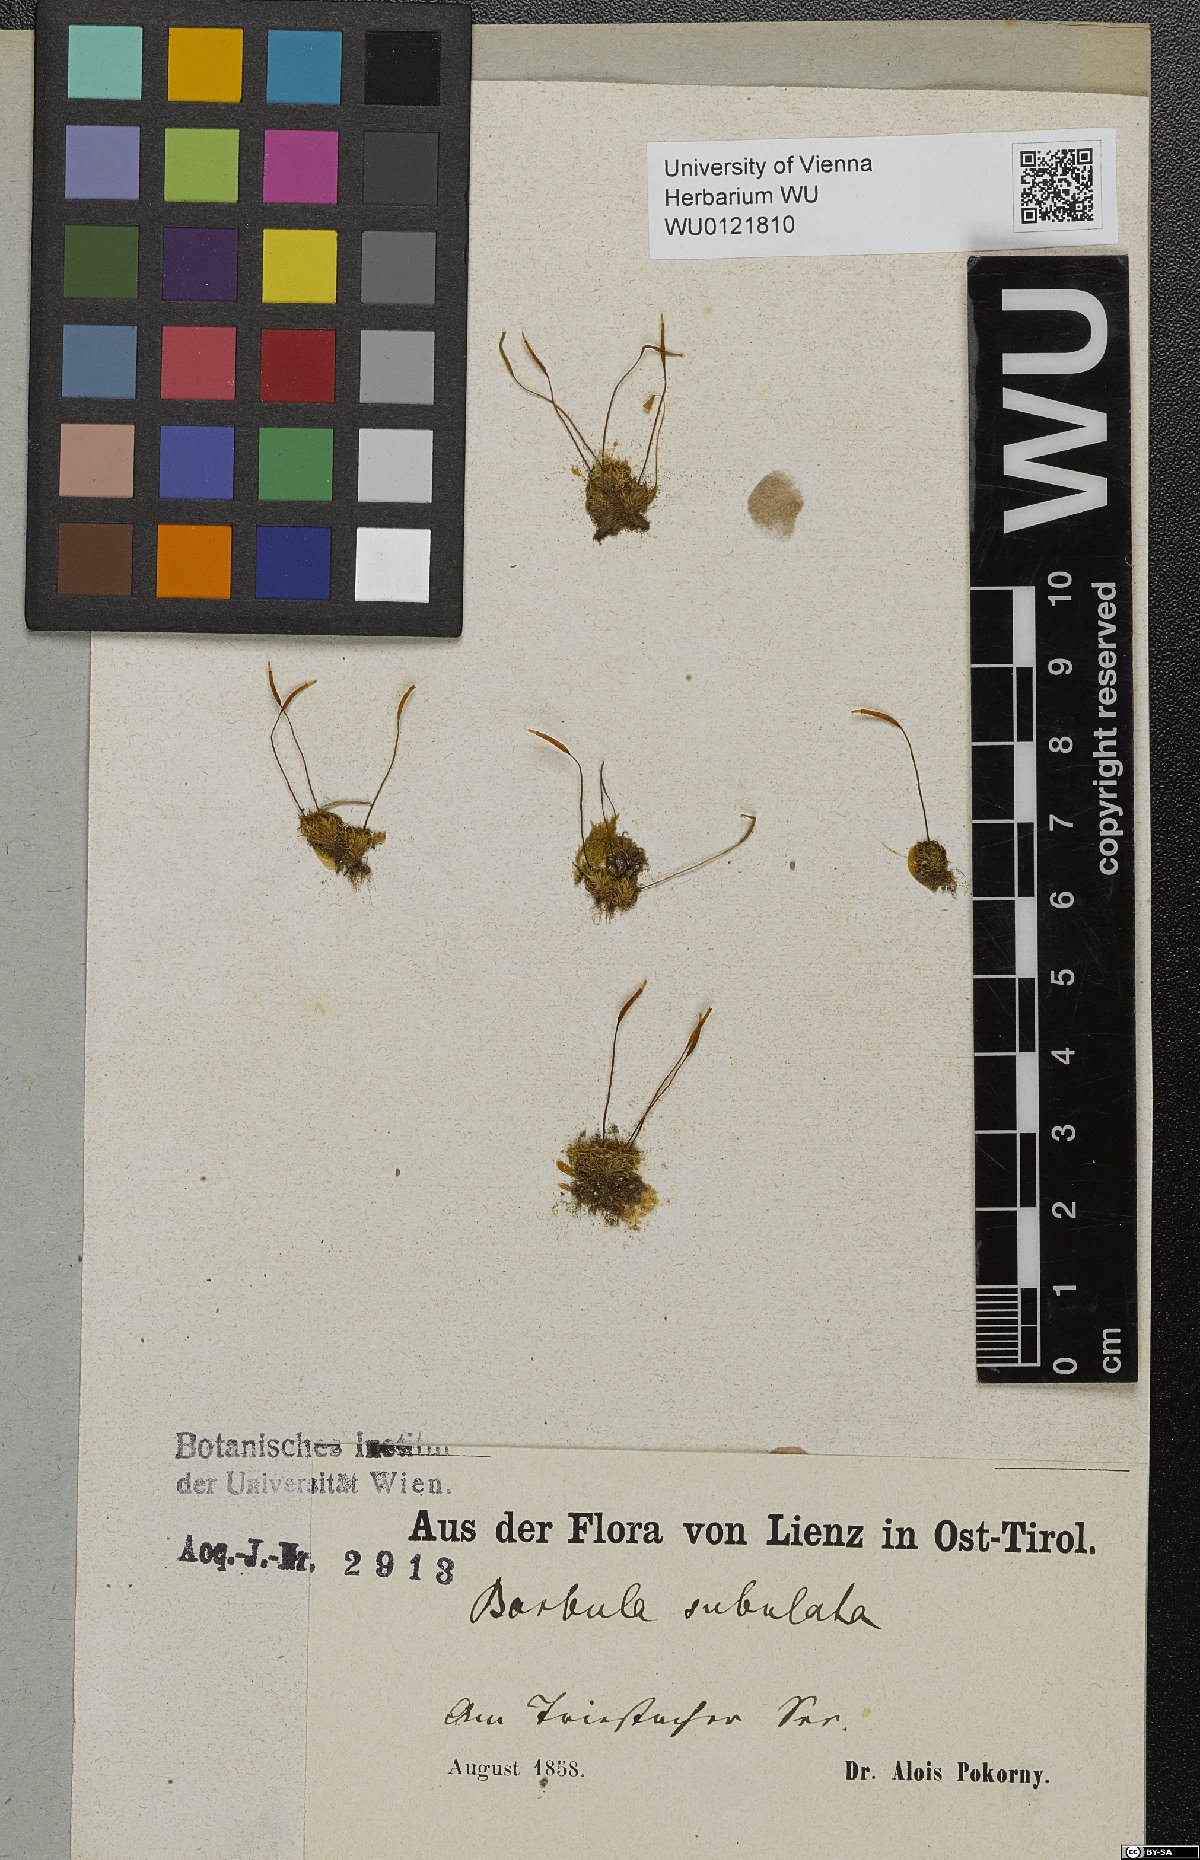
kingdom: Plantae
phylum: Bryophyta
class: Bryopsida
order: Pottiales
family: Pottiaceae
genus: Tortula
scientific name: Tortula subulata
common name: Upright screw-moss
